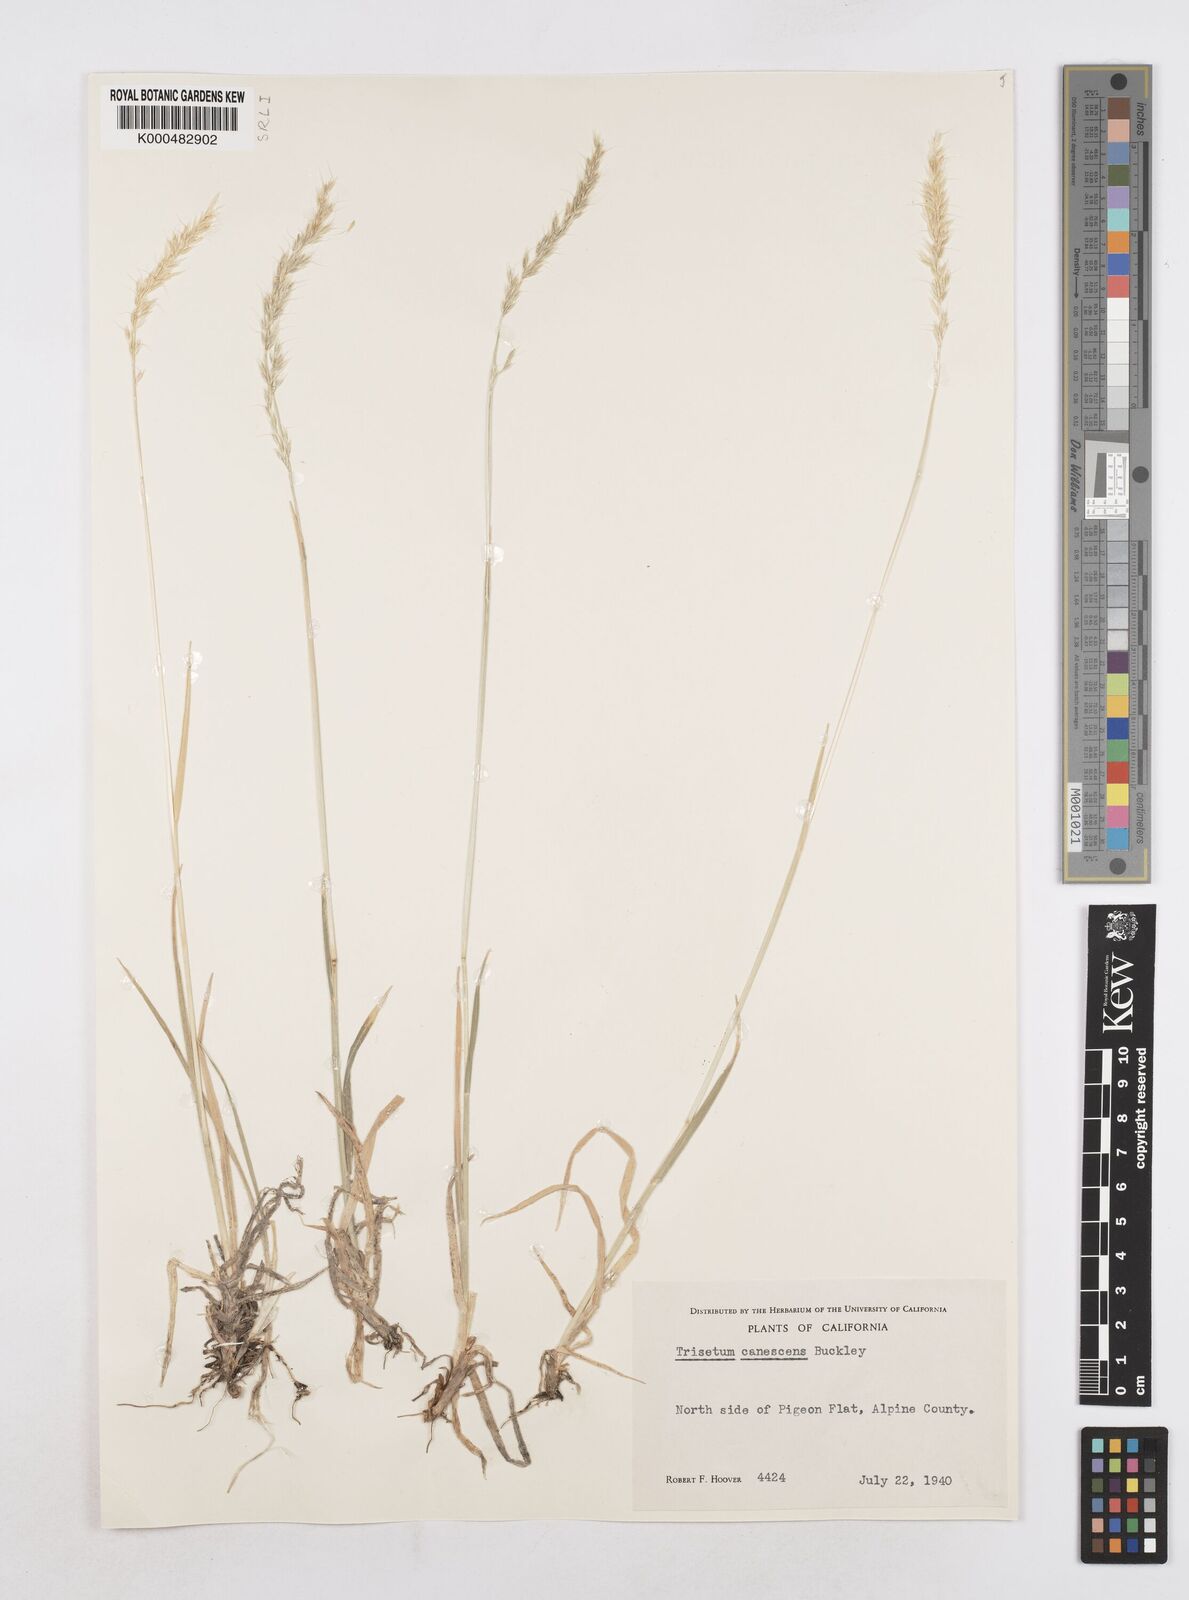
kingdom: Plantae
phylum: Tracheophyta
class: Liliopsida
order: Poales
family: Poaceae
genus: Graphephorum
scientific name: Graphephorum canescens
